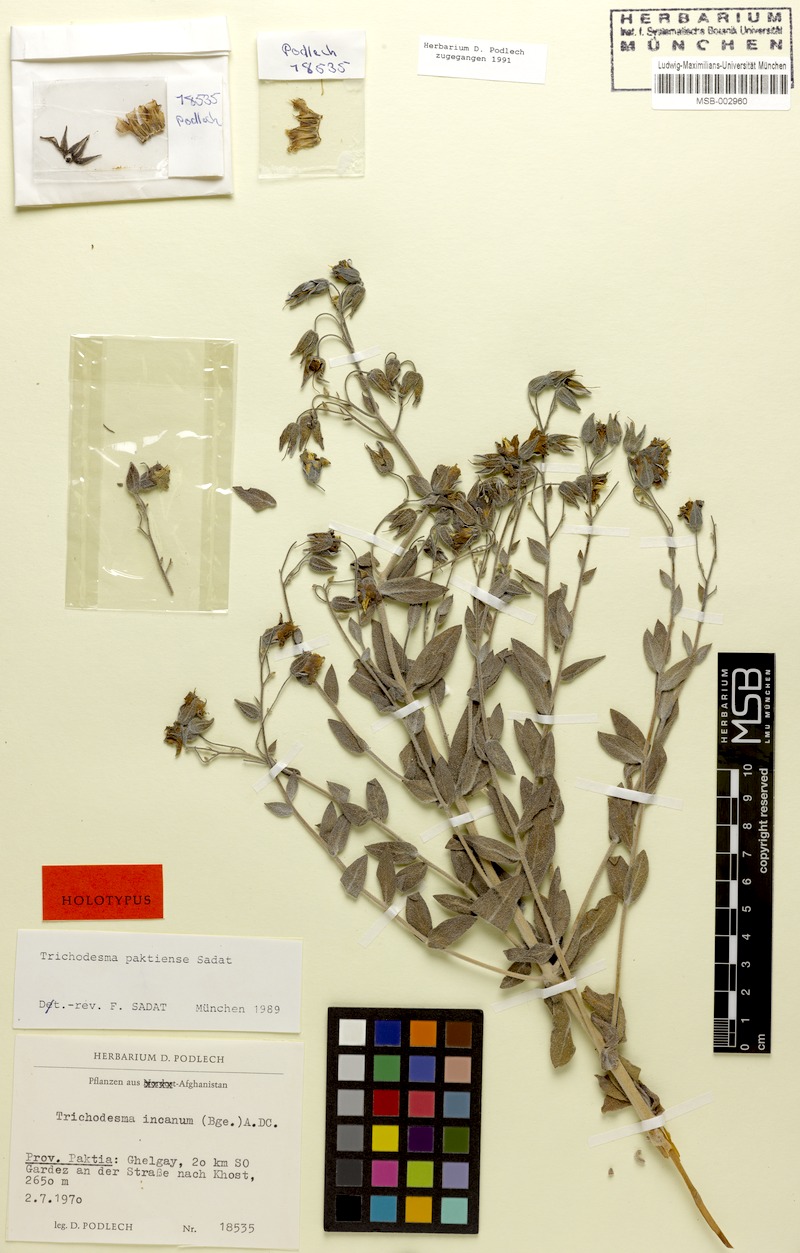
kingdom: Plantae
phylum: Tracheophyta
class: Magnoliopsida
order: Boraginales
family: Boraginaceae
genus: Trichodesma
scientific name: Trichodesma paktiense
